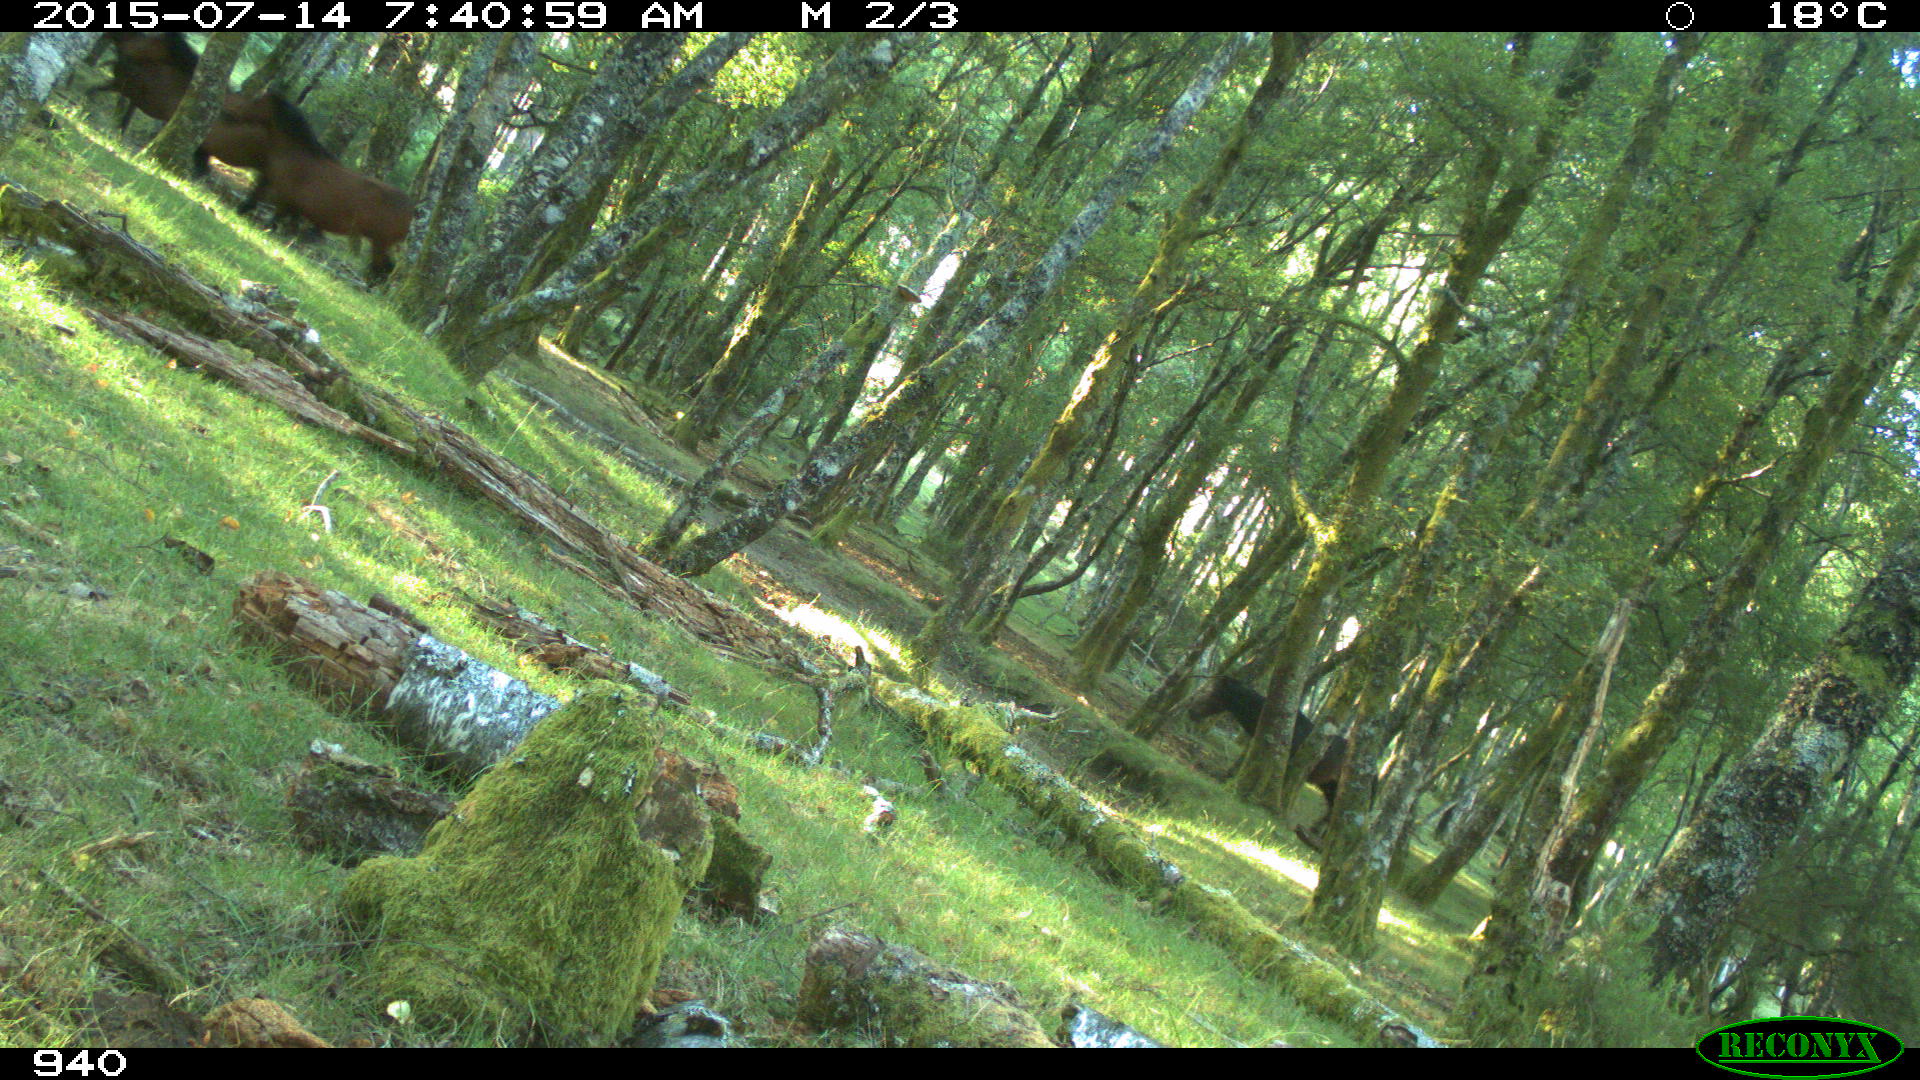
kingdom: Animalia
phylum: Chordata
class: Mammalia
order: Perissodactyla
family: Equidae
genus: Equus
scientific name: Equus caballus
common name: Horse
